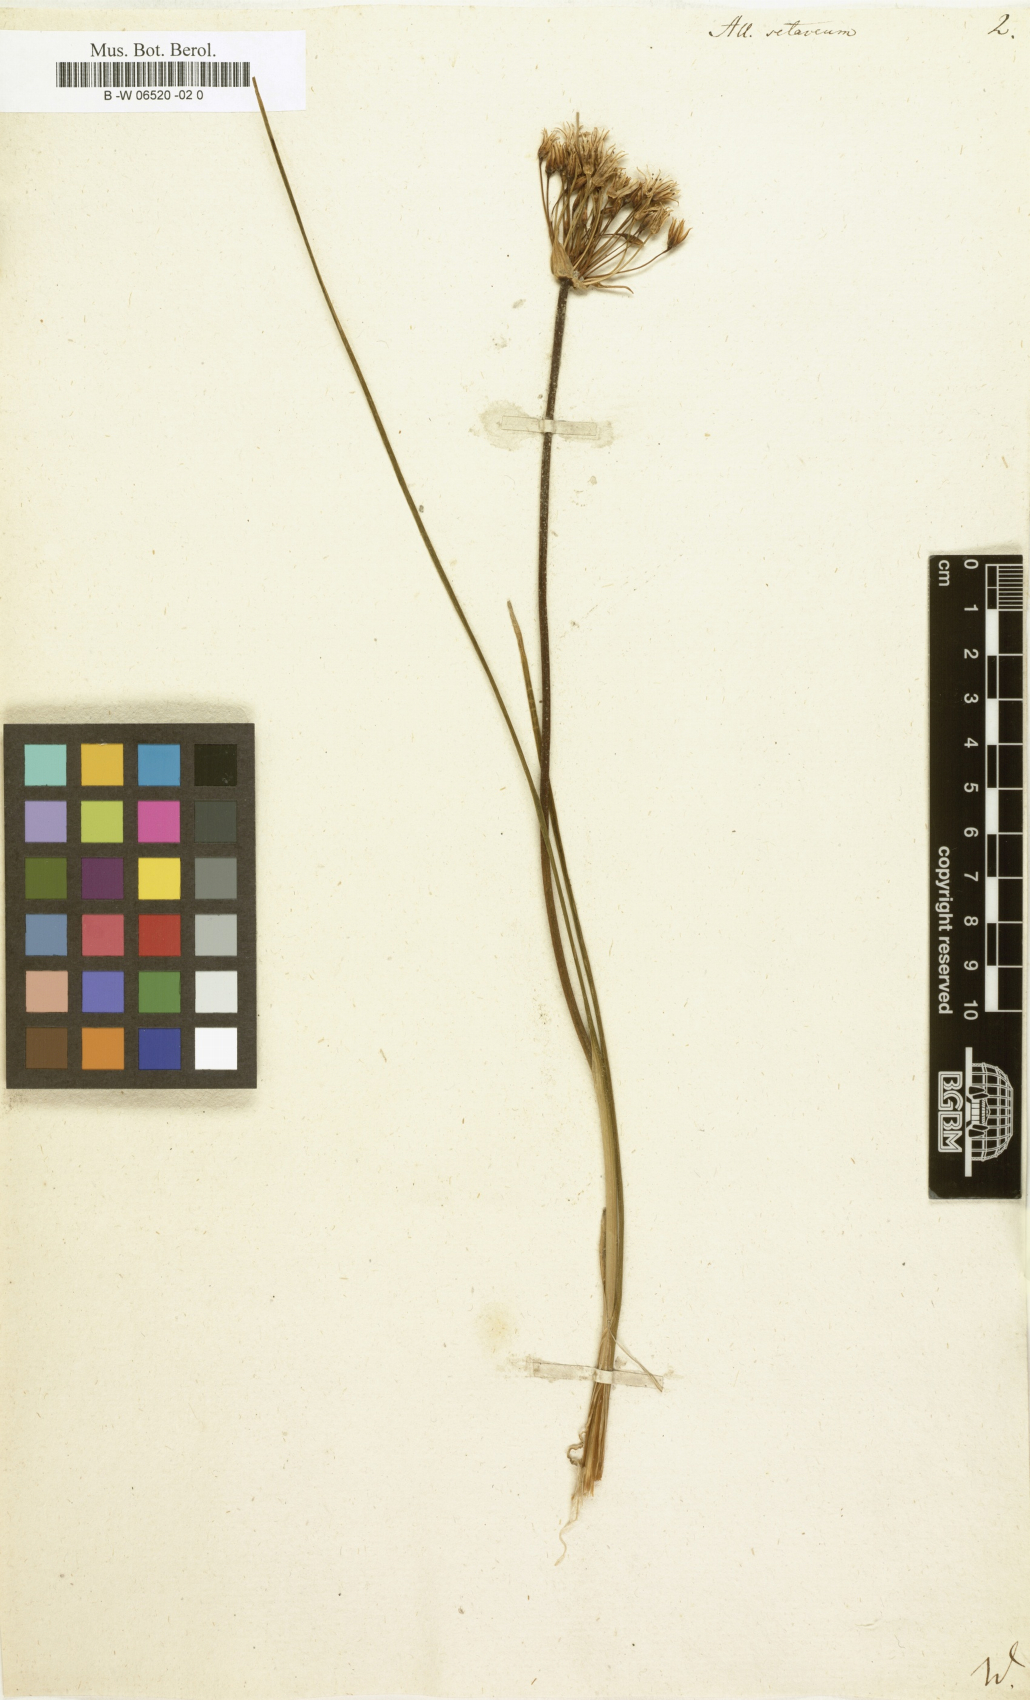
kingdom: Plantae
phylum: Tracheophyta
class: Liliopsida
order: Asparagales
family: Amaryllidaceae
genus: Allium
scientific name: Allium moschatum
